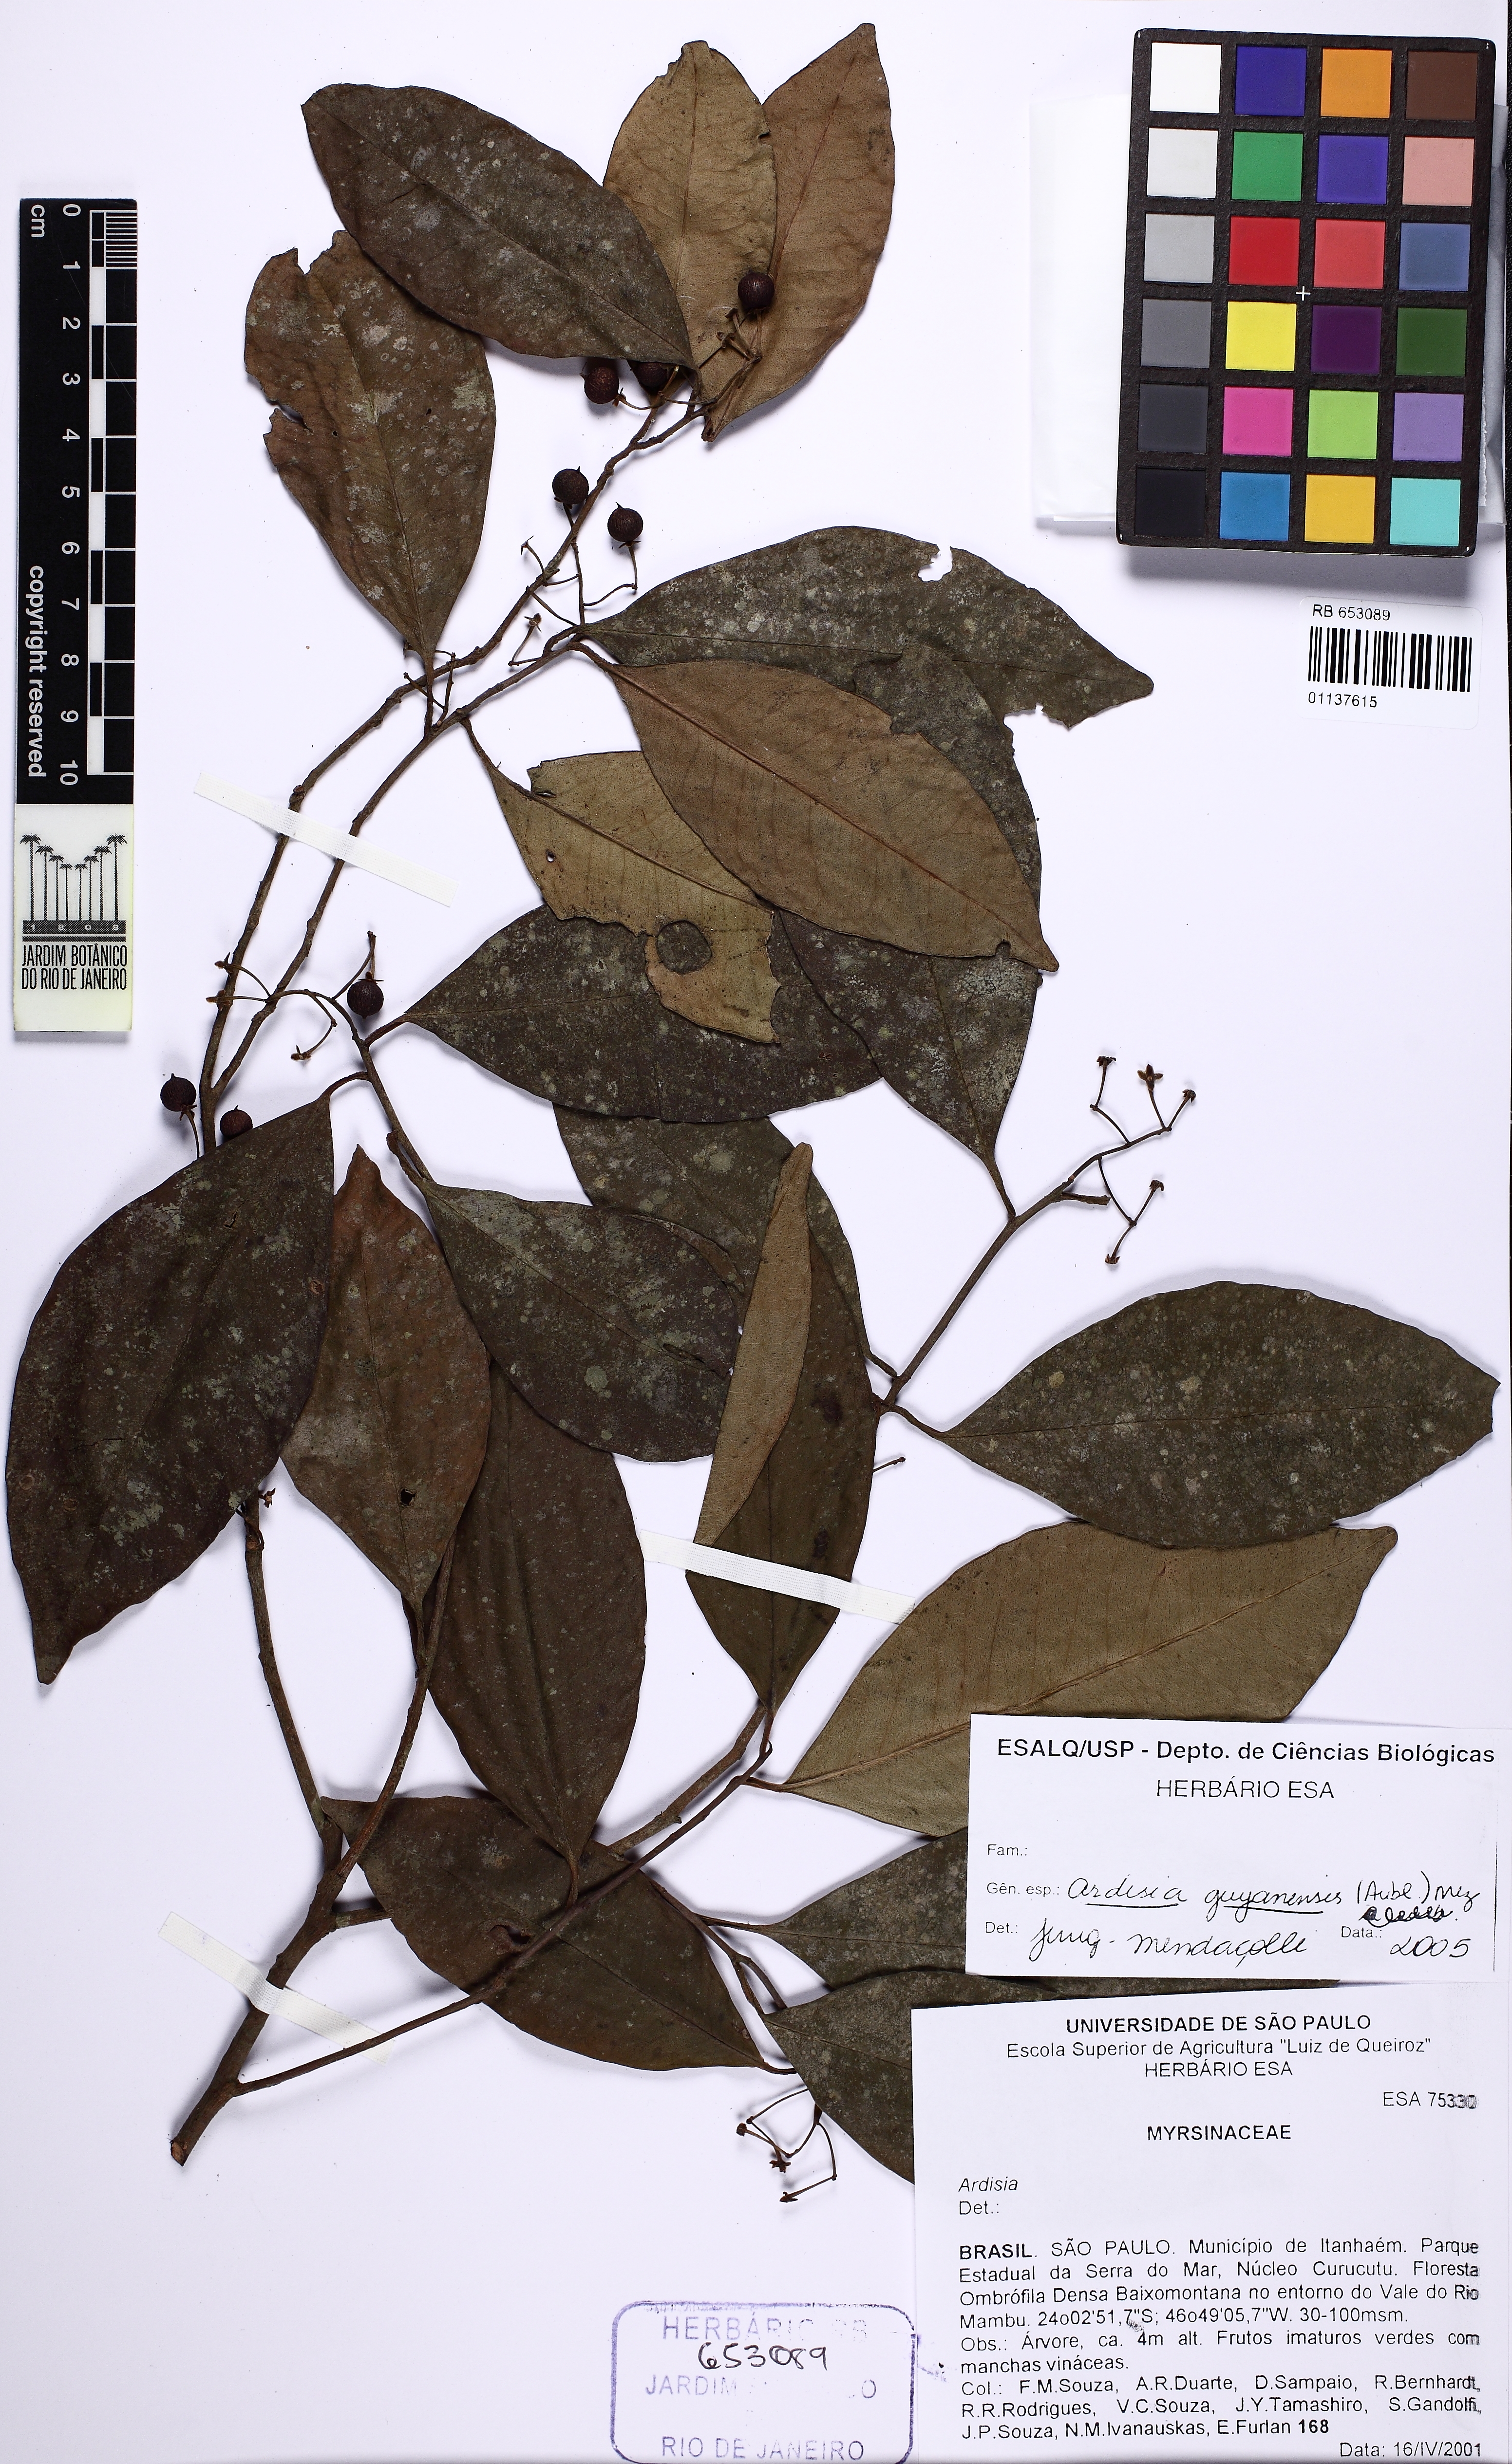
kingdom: Plantae
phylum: Tracheophyta
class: Magnoliopsida
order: Ericales
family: Primulaceae
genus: Ardisia
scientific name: Ardisia guianensis
